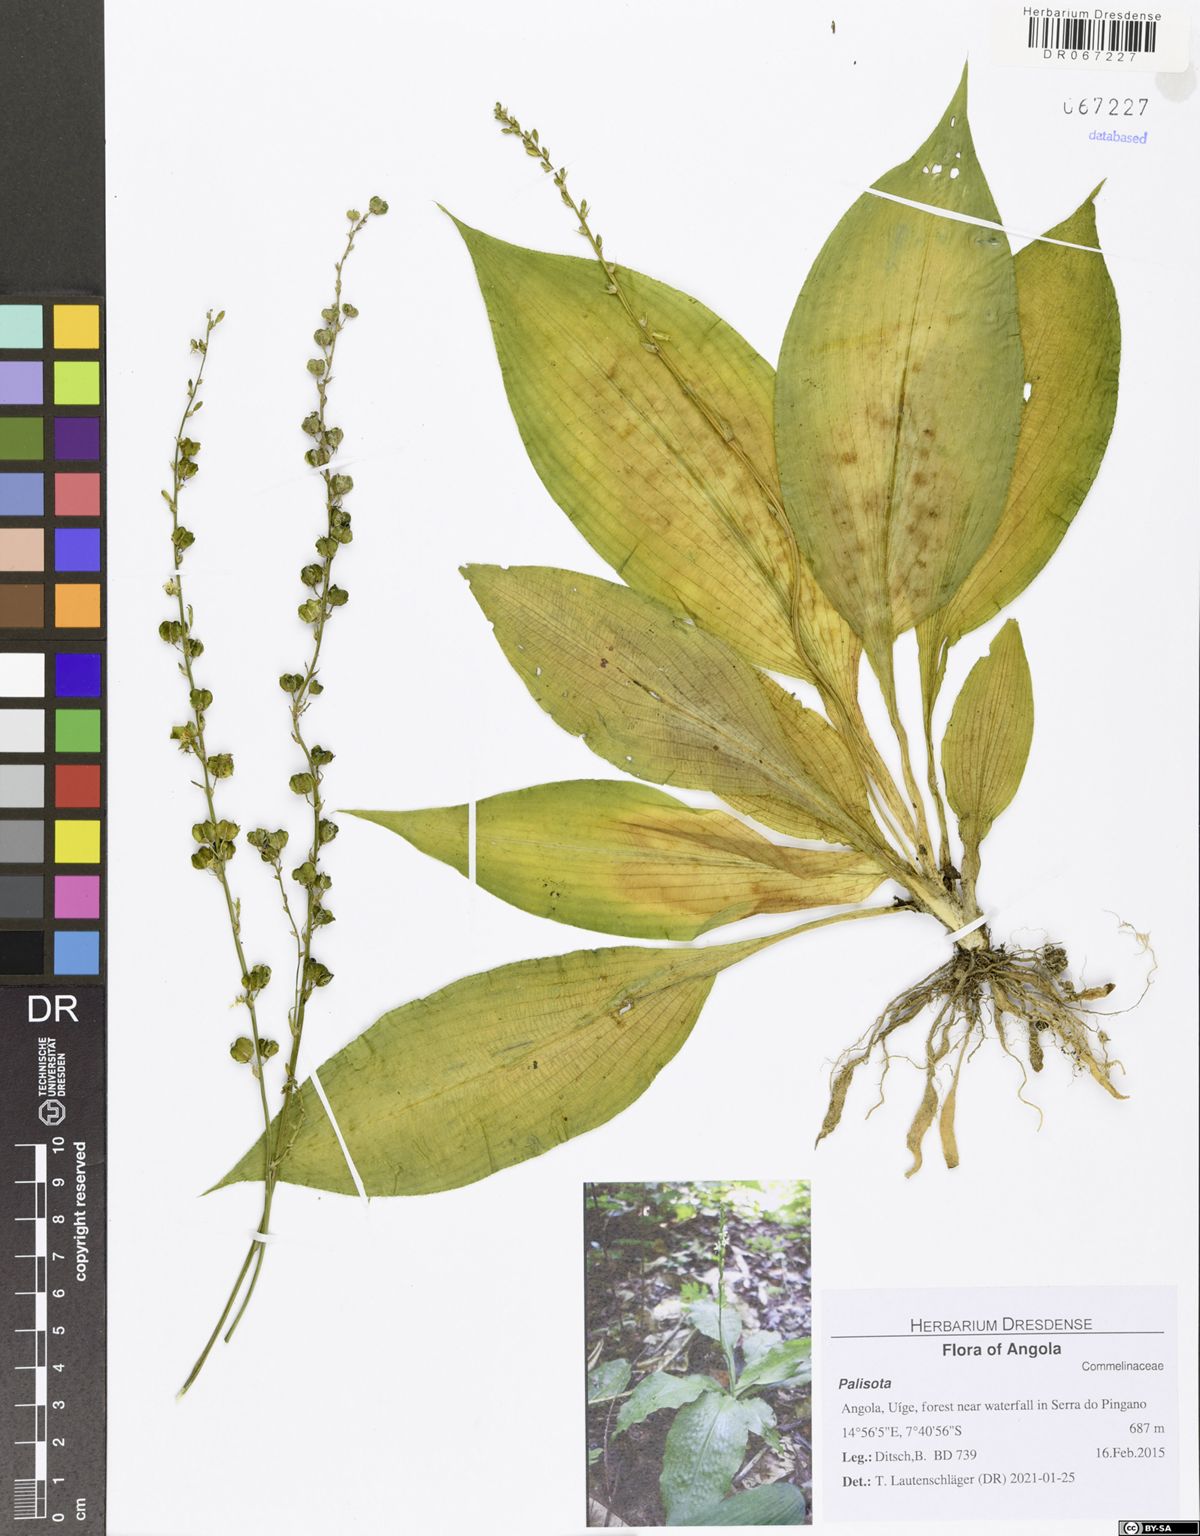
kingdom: Plantae
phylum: Tracheophyta
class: Liliopsida
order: Asparagales
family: Asparagaceae
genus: Chlorophytum
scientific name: Chlorophytum sparsiflorum
